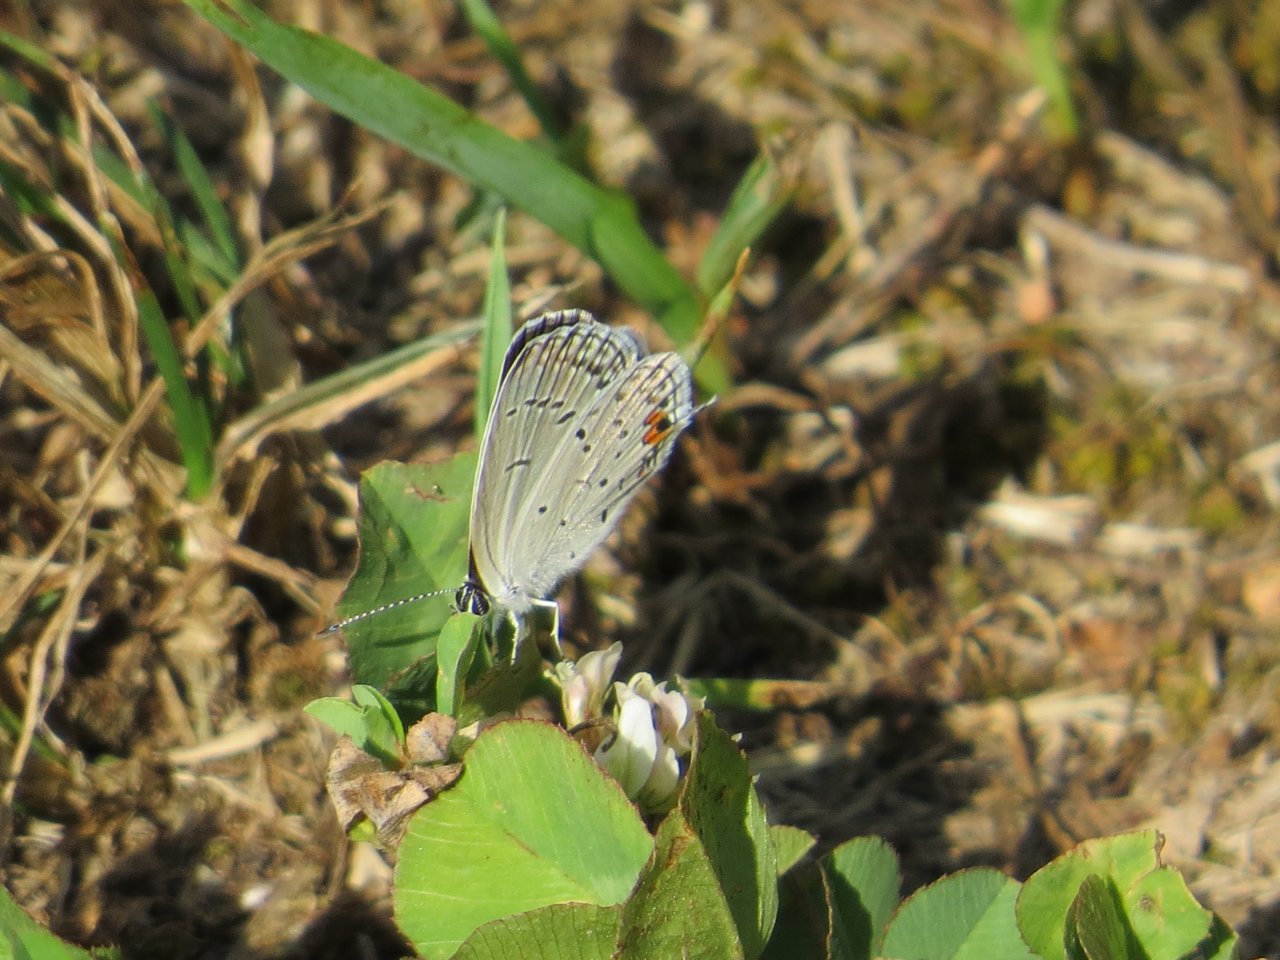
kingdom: Animalia
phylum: Arthropoda
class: Insecta
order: Lepidoptera
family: Lycaenidae
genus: Elkalyce
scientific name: Elkalyce comyntas
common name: Eastern Tailed-Blue
